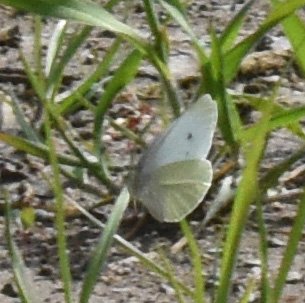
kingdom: Animalia
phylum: Arthropoda
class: Insecta
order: Lepidoptera
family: Pieridae
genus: Pieris
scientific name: Pieris rapae
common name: Cabbage White
